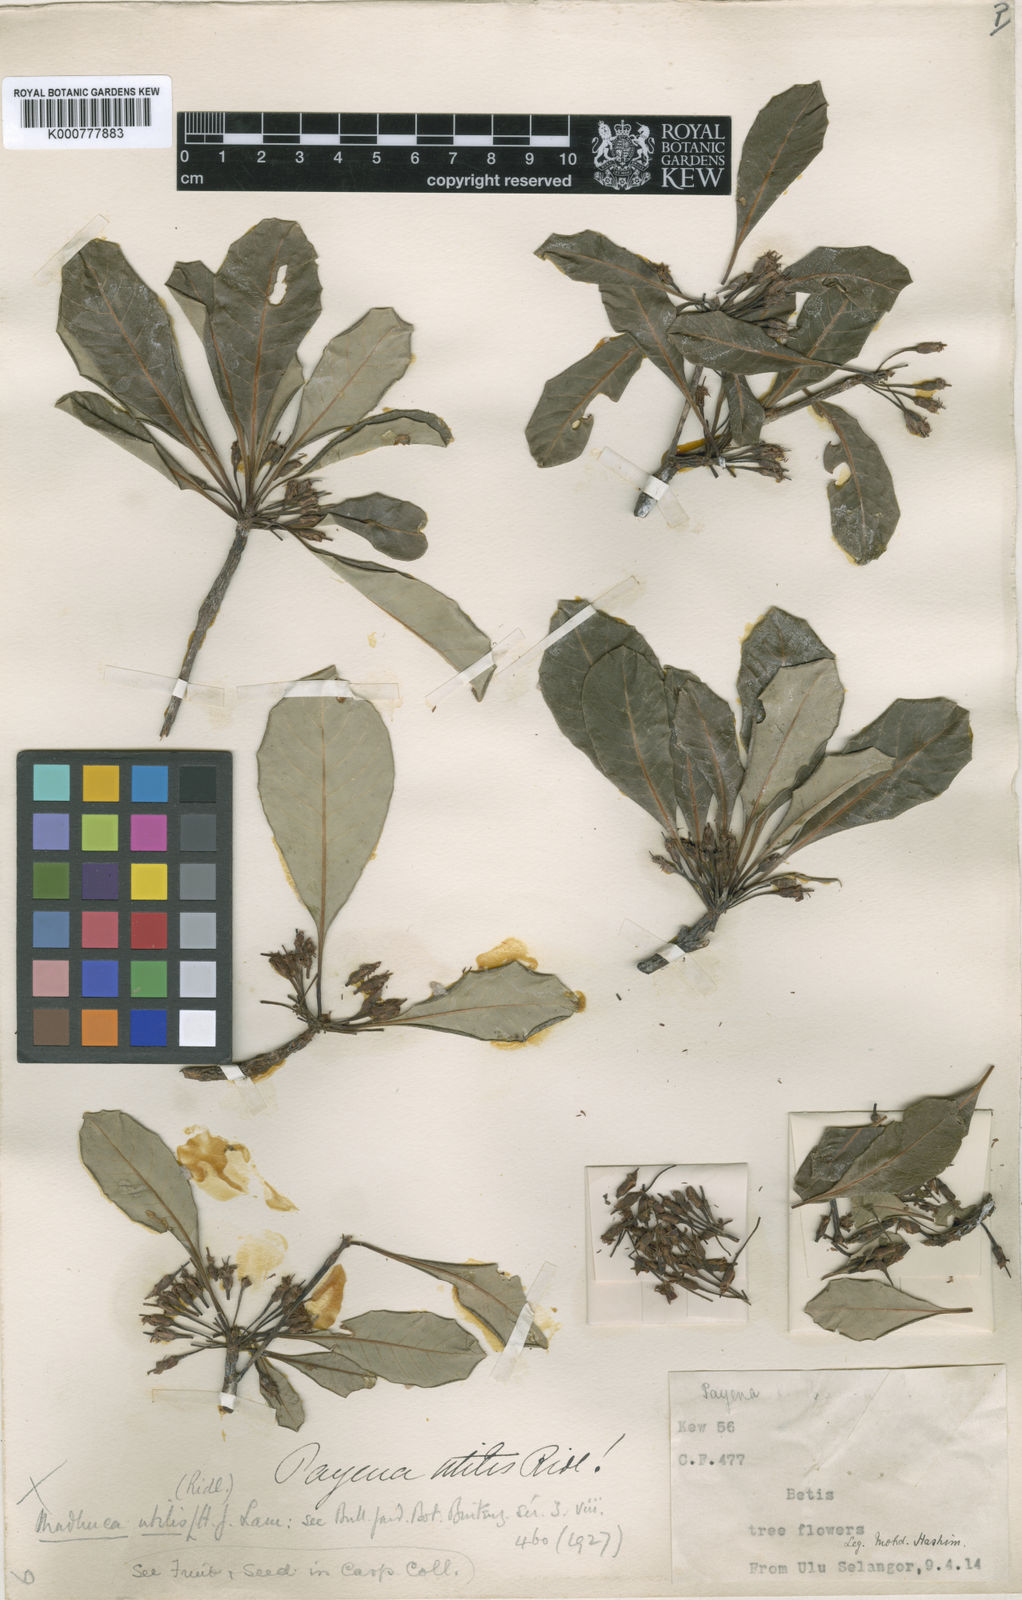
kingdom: Plantae
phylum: Tracheophyta
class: Magnoliopsida
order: Ericales
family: Sapotaceae
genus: Madhuca
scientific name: Madhuca utilis
